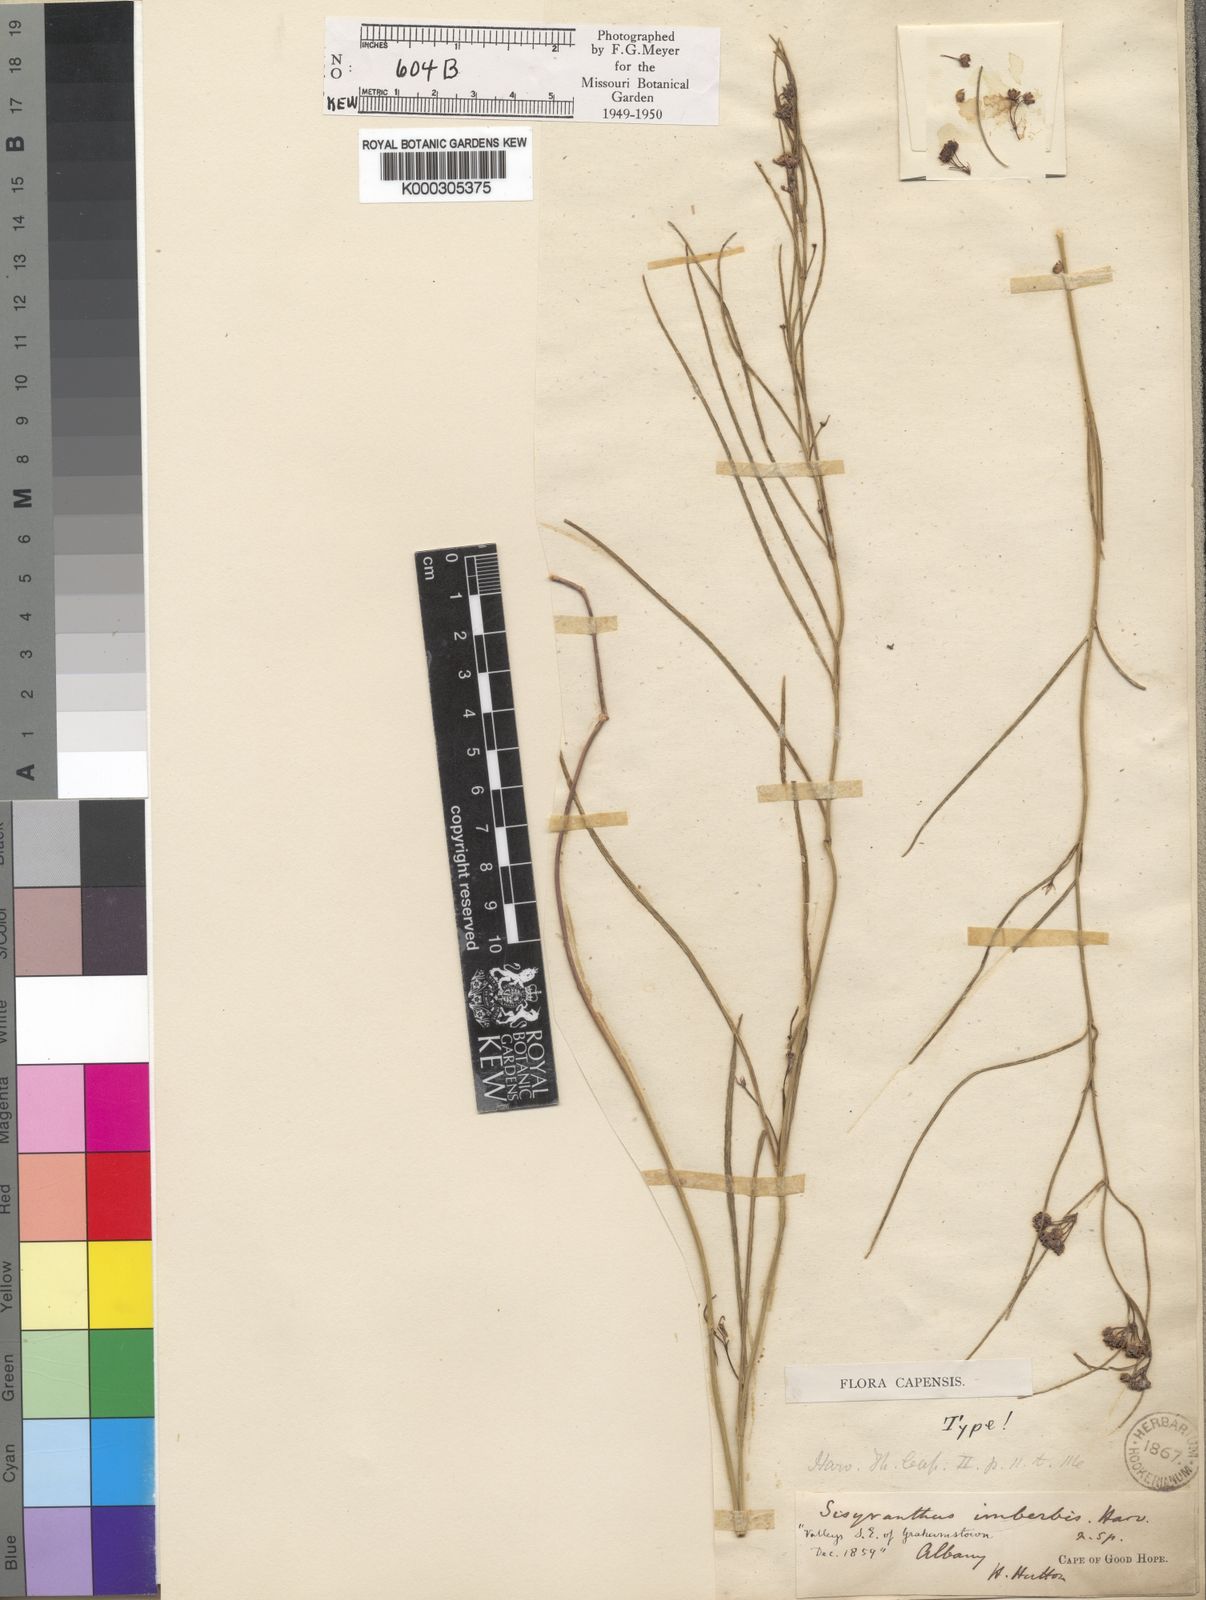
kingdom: Plantae
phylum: Tracheophyta
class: Magnoliopsida
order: Gentianales
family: Apocynaceae
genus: Sisyranthus
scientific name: Sisyranthus imberbis
